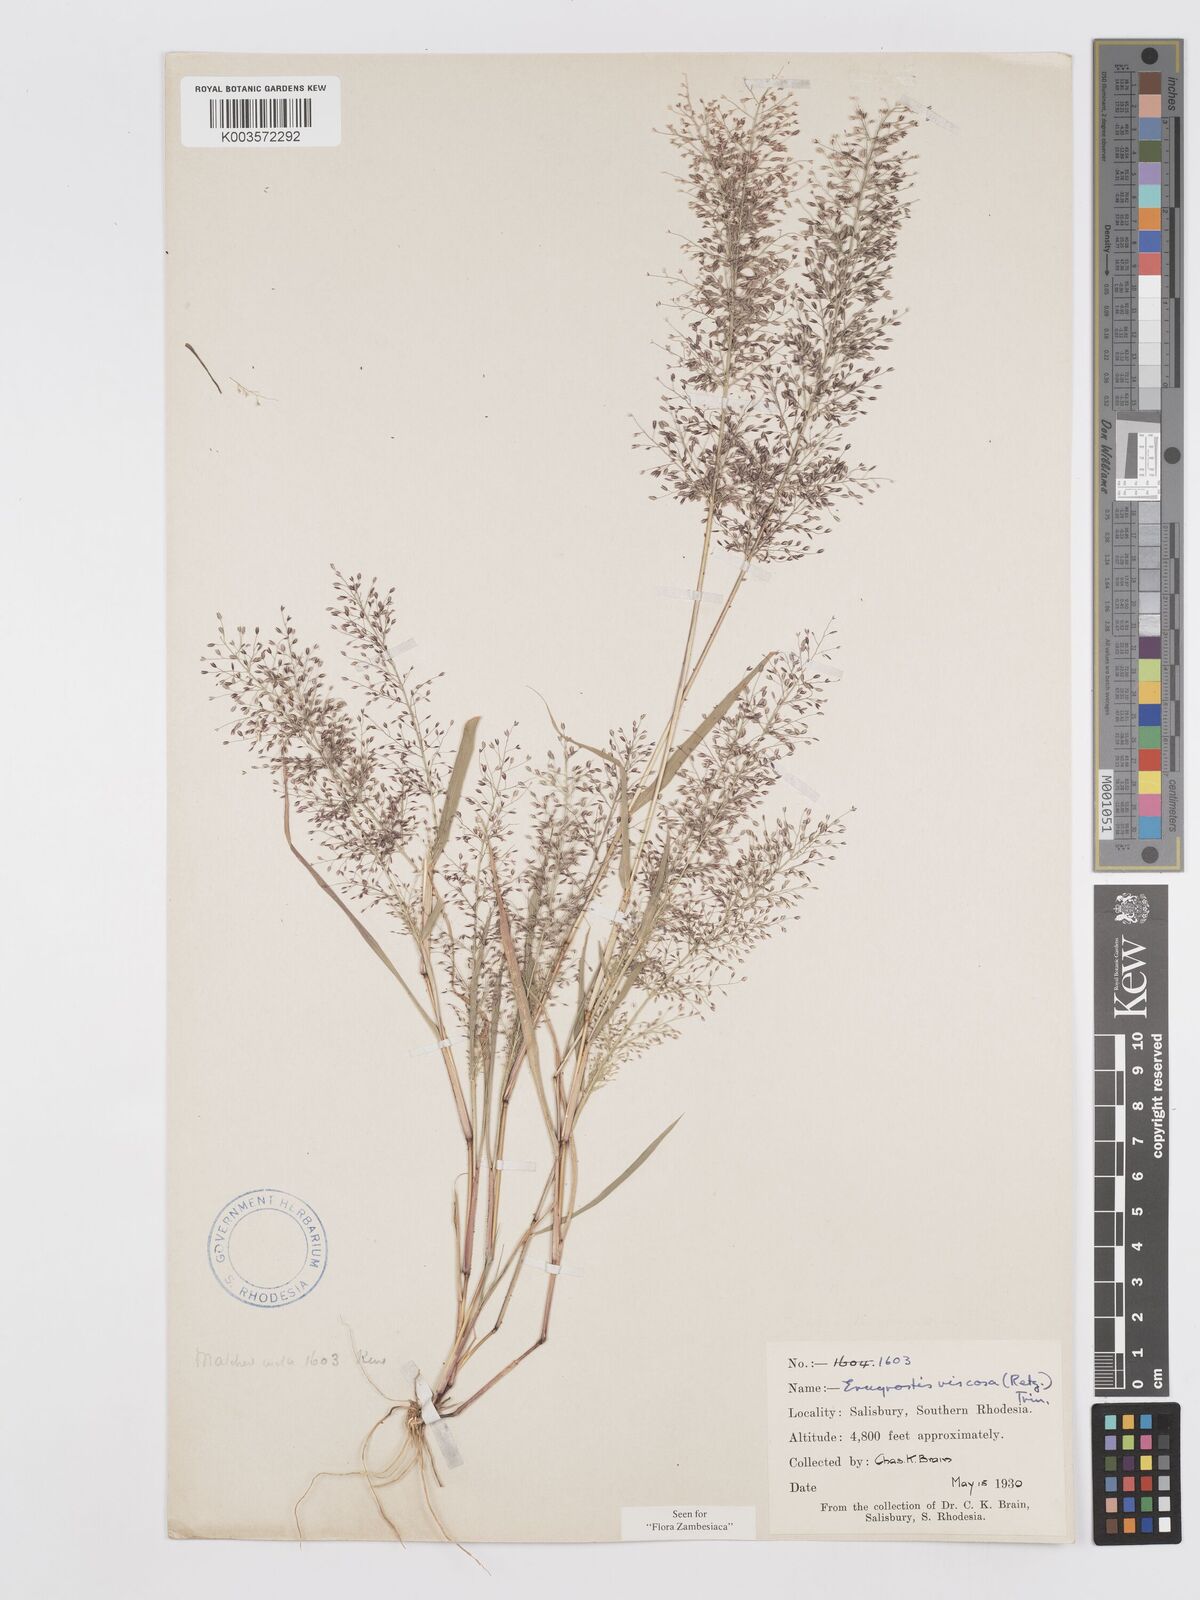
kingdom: Plantae
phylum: Tracheophyta
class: Liliopsida
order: Poales
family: Poaceae
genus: Eragrostis
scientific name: Eragrostis
